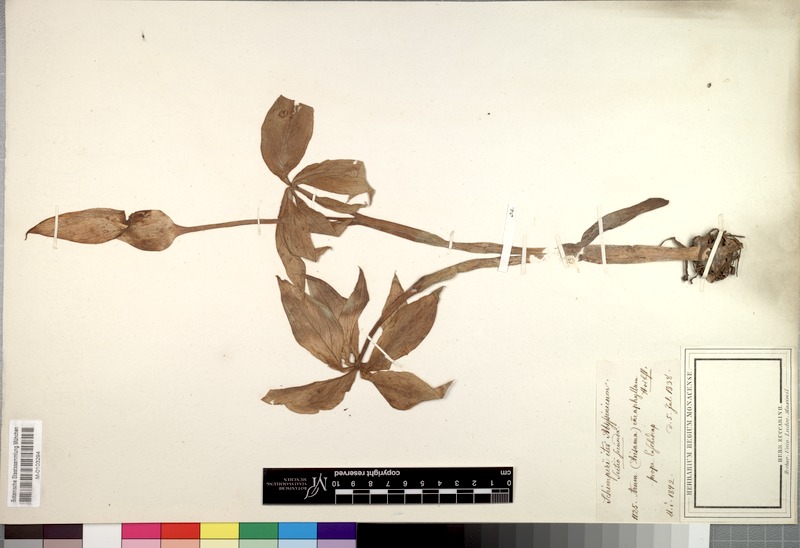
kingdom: Plantae
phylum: Tracheophyta
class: Liliopsida
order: Alismatales
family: Araceae
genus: Arisaema
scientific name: Arisaema enneaphyllum
